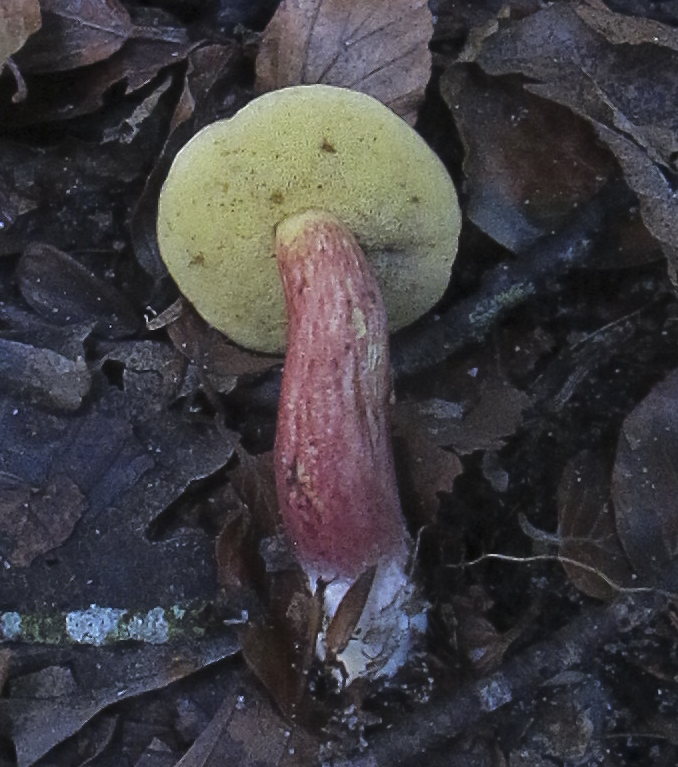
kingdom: Fungi
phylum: Basidiomycota
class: Agaricomycetes
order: Boletales
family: Boletaceae
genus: Xerocomellus
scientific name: Xerocomellus
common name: dværgrørhat
